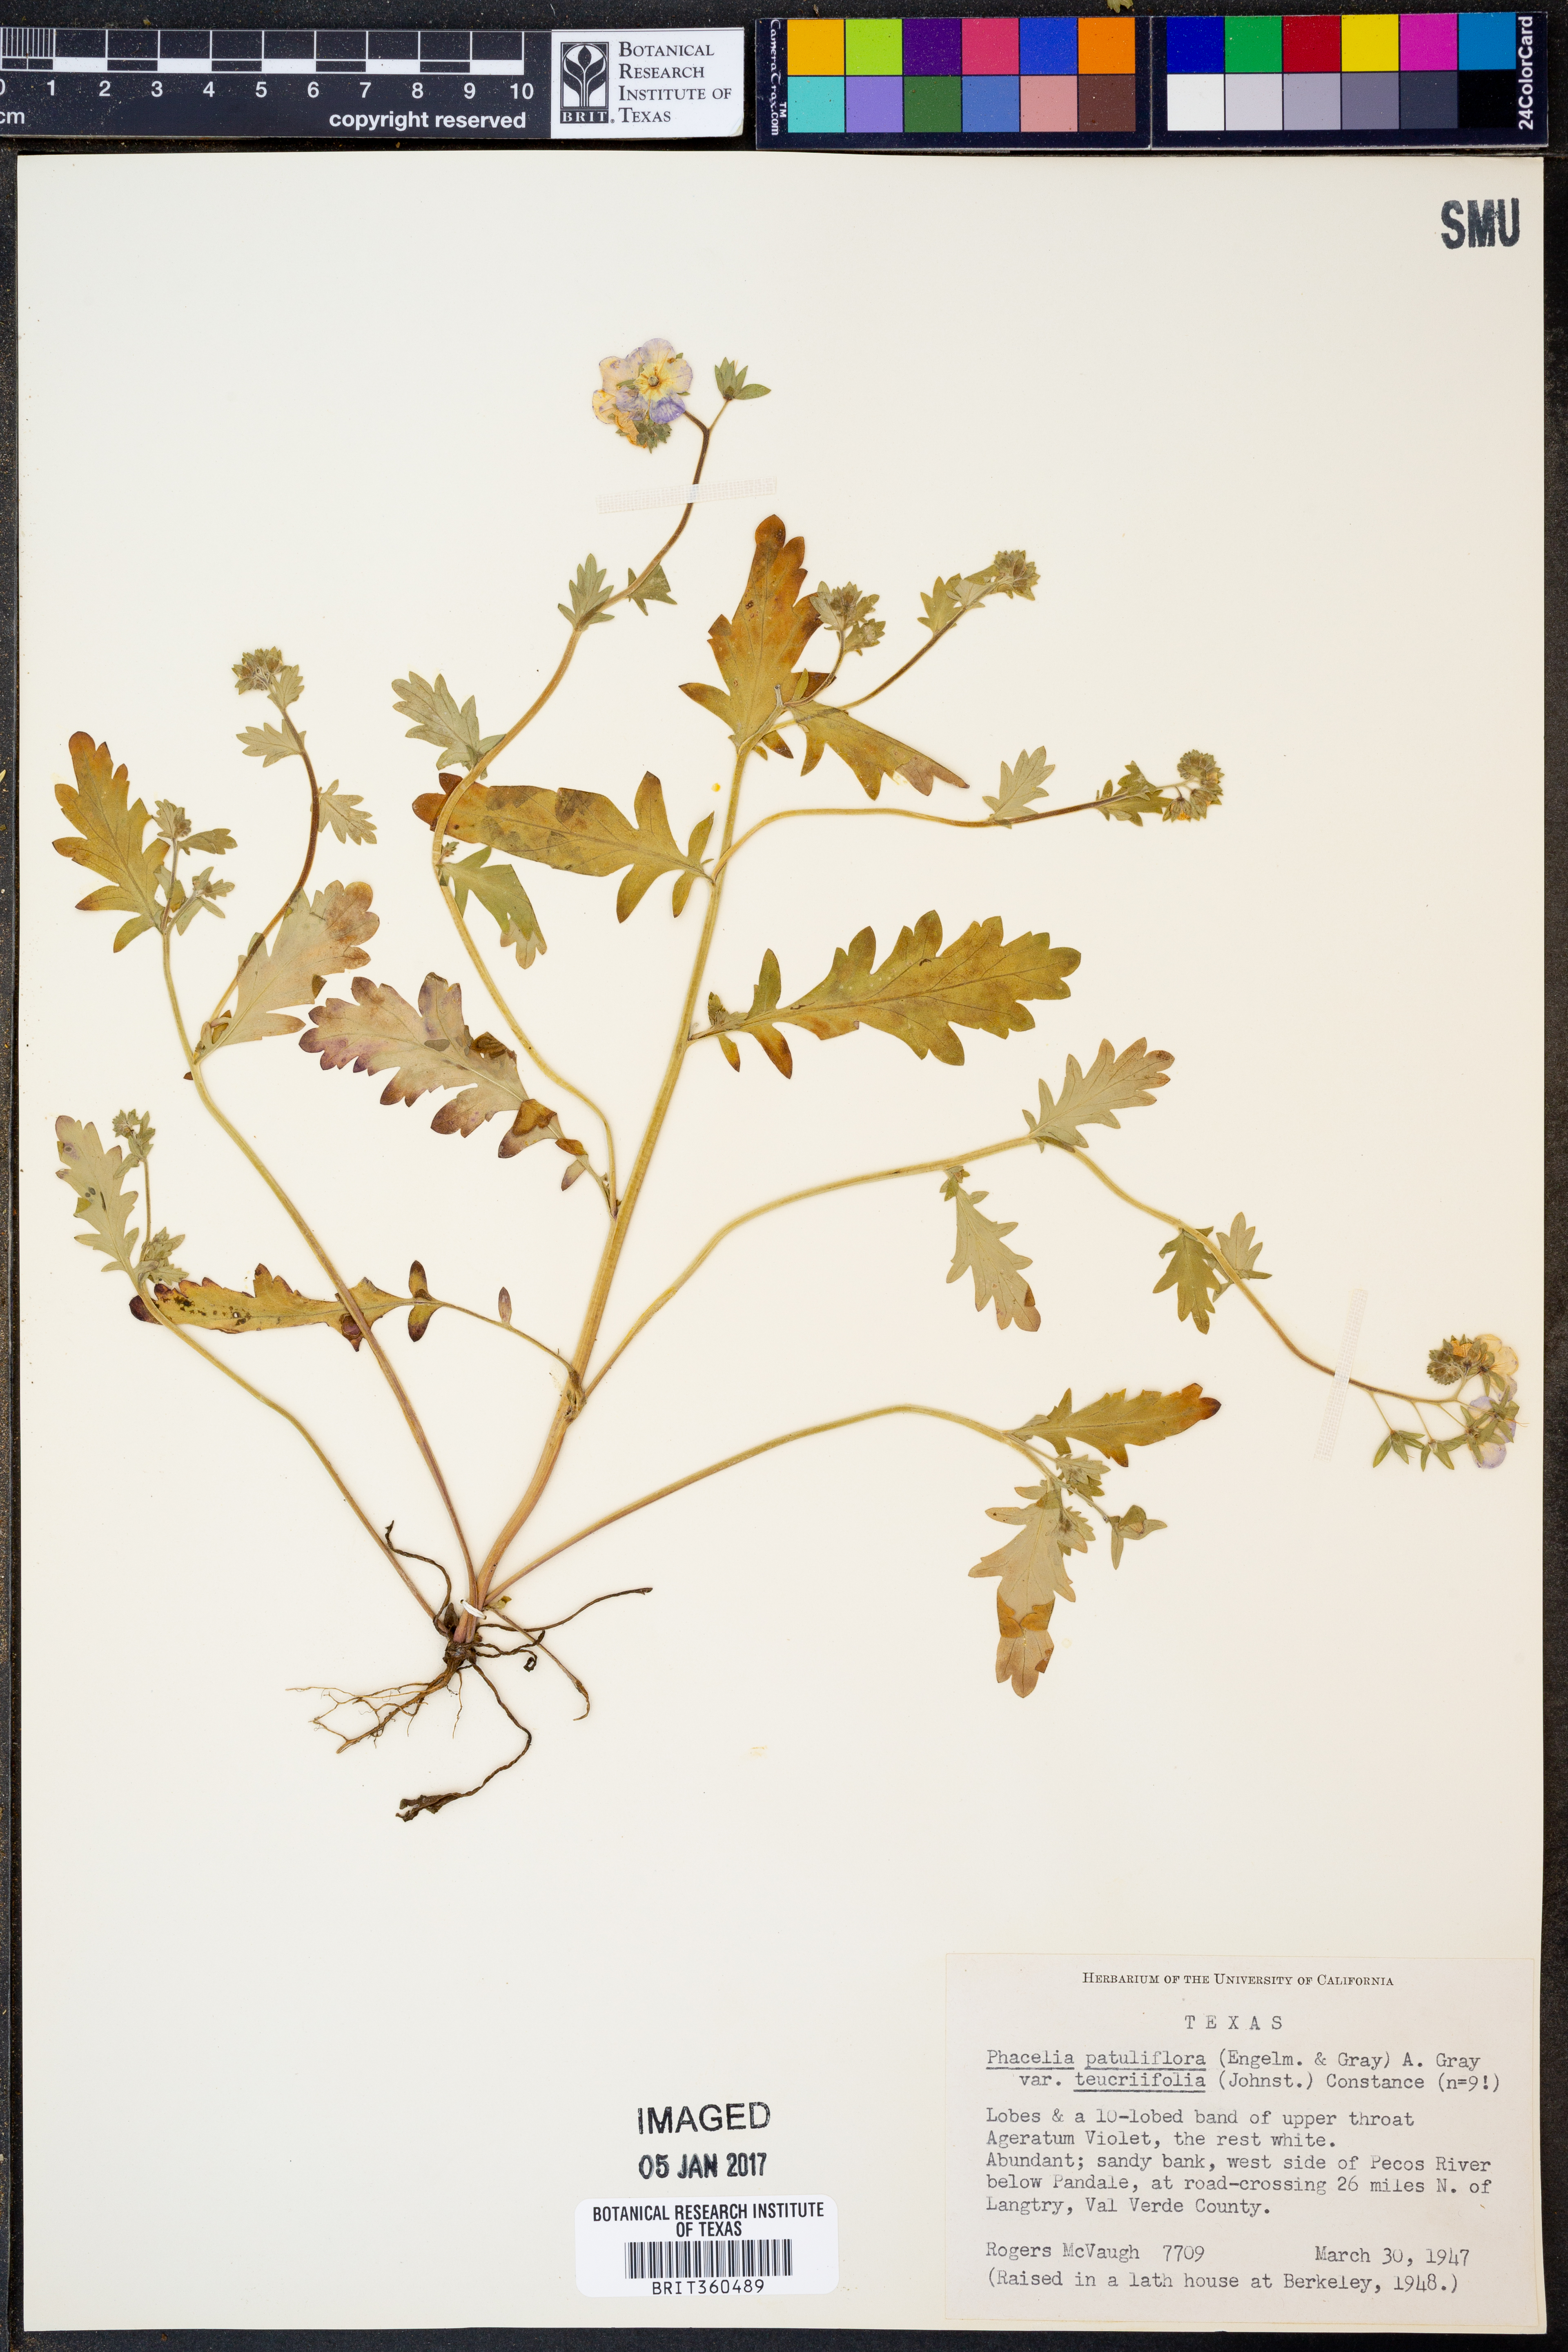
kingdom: Plantae
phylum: Tracheophyta
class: Magnoliopsida
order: Boraginales
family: Hydrophyllaceae
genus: Phacelia
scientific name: Phacelia patuliflora
